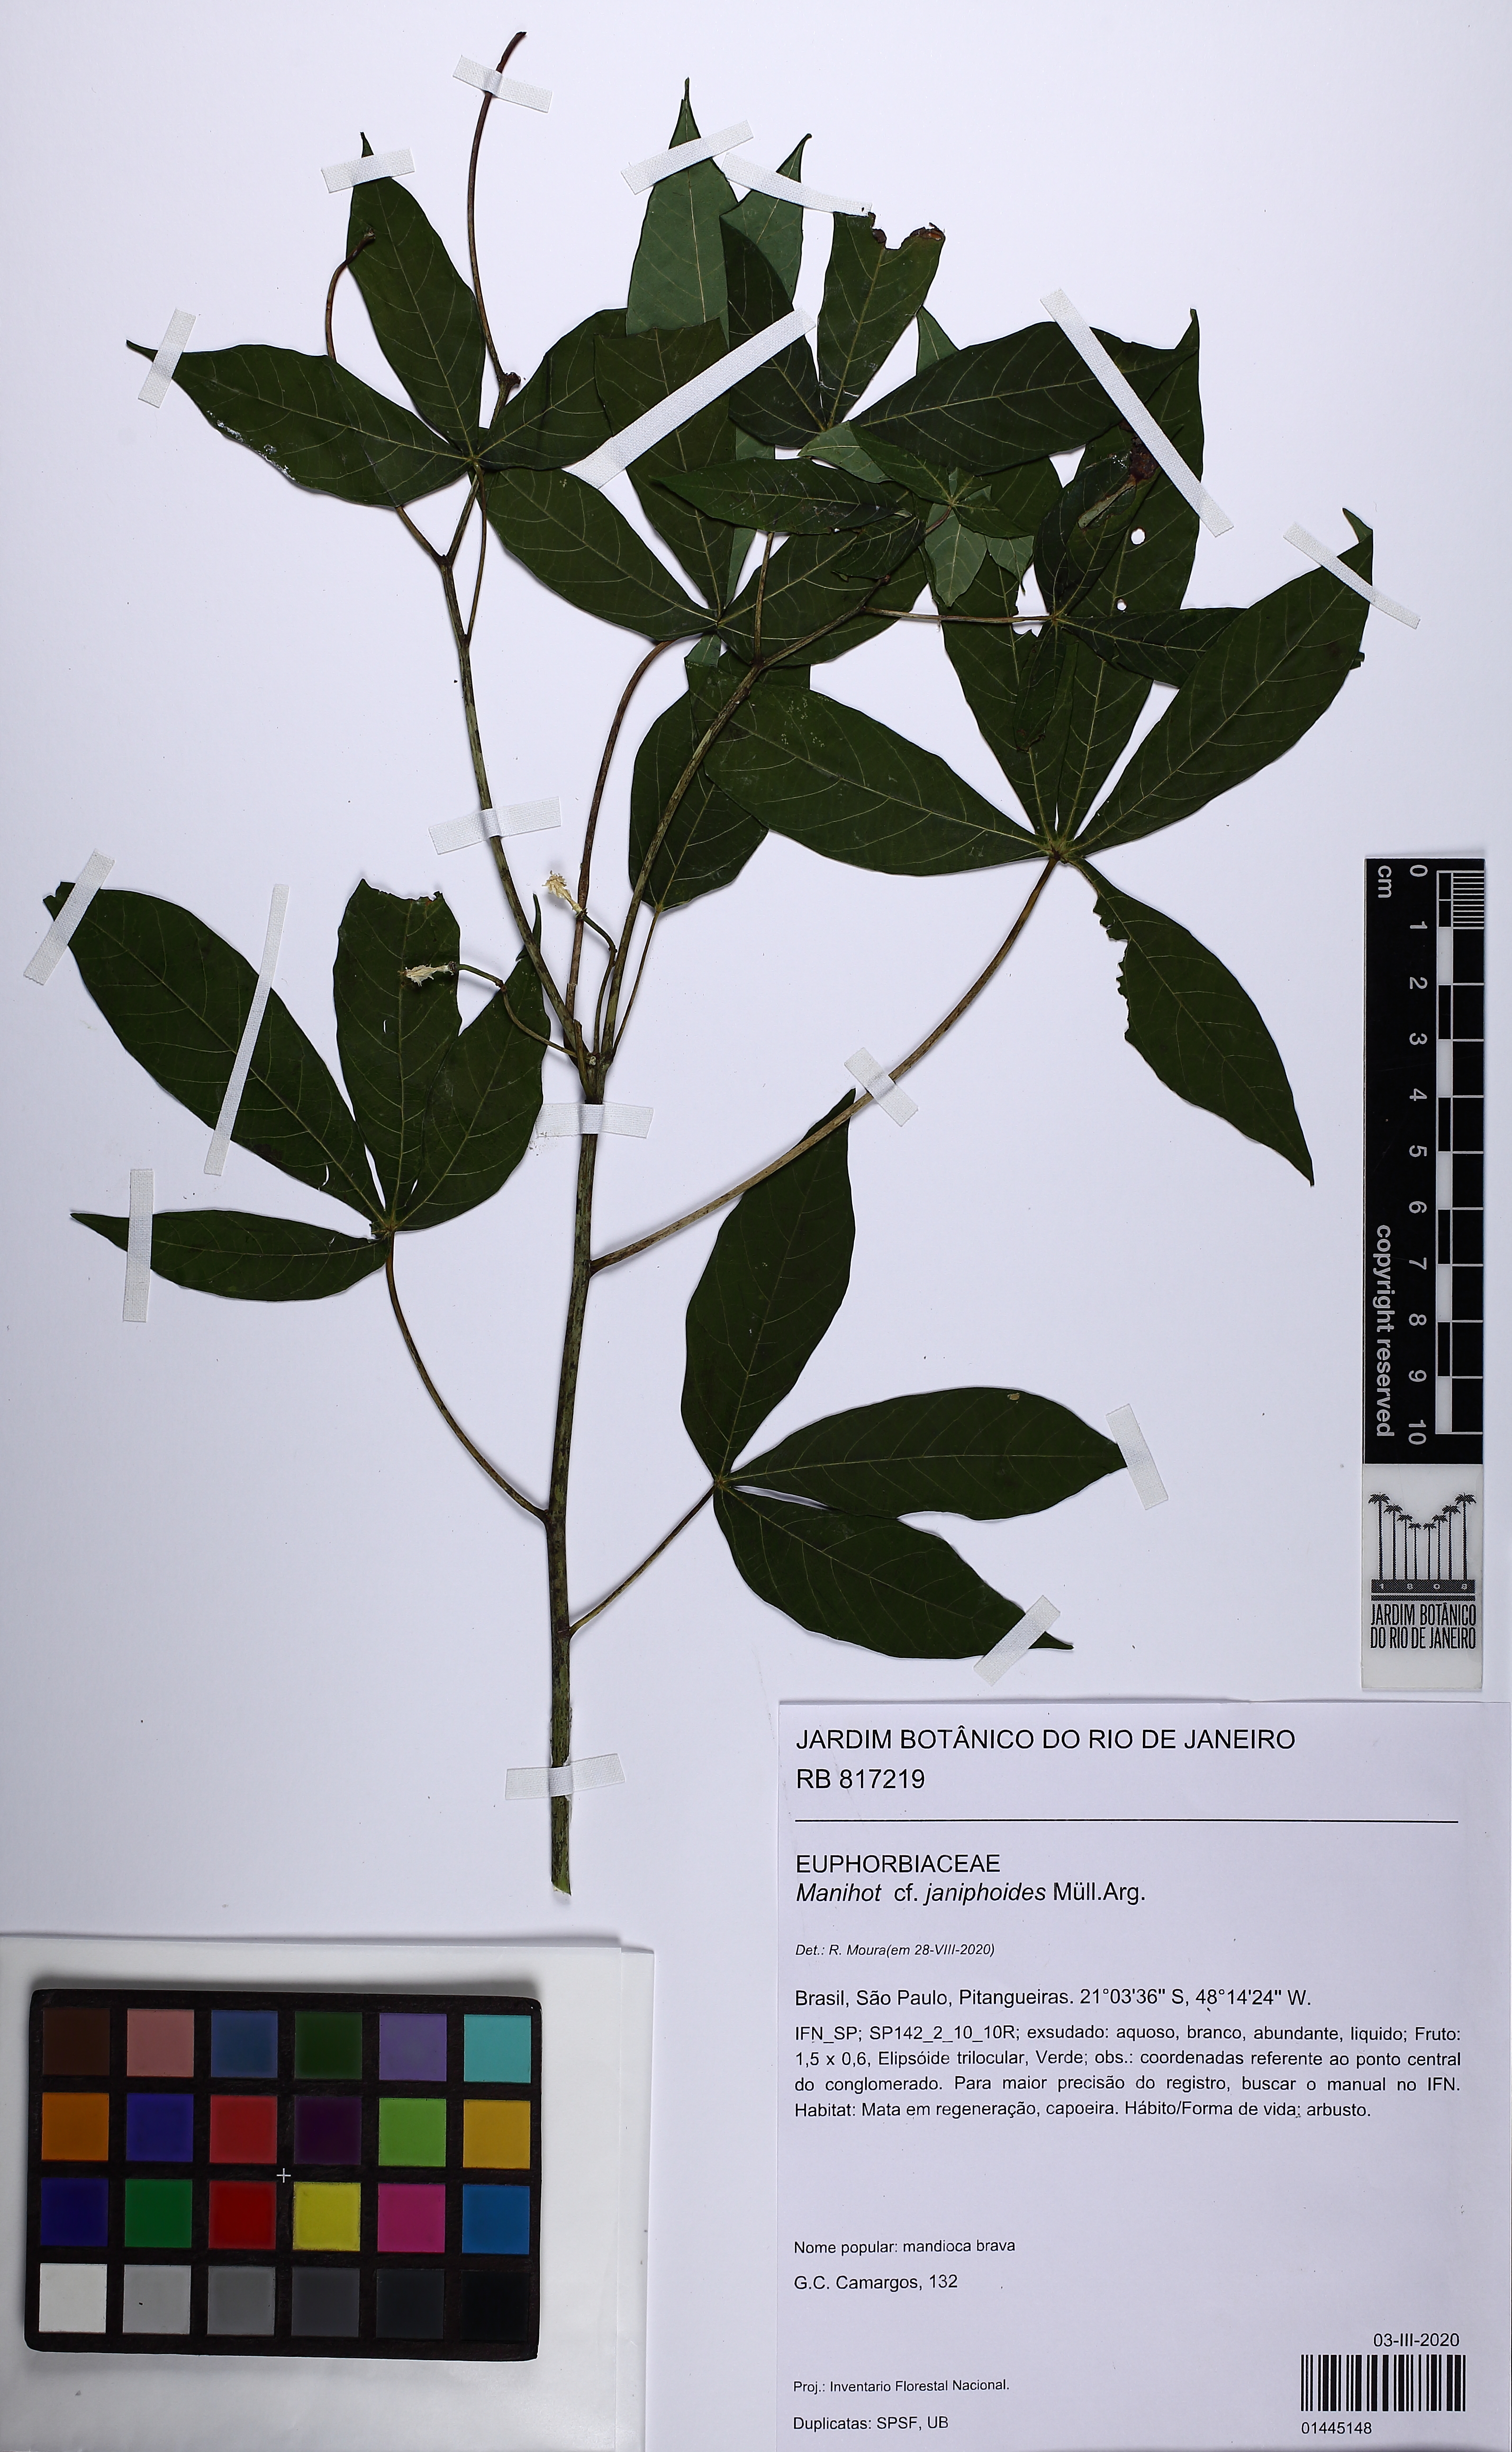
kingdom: Plantae
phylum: Tracheophyta
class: Magnoliopsida
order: Malpighiales
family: Euphorbiaceae
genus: Manihot
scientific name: Manihot janiphoides
